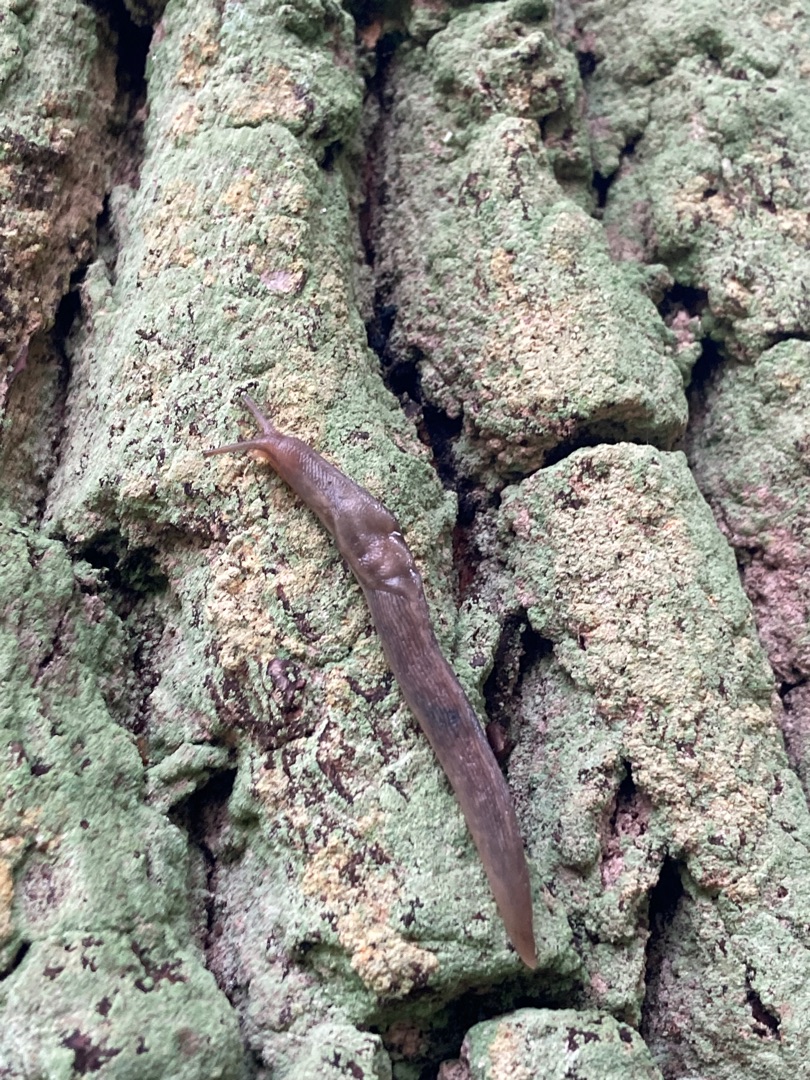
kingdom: Animalia
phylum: Mollusca
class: Gastropoda
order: Stylommatophora
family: Limacidae
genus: Lehmannia
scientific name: Lehmannia marginata
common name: Bøgesnegl
